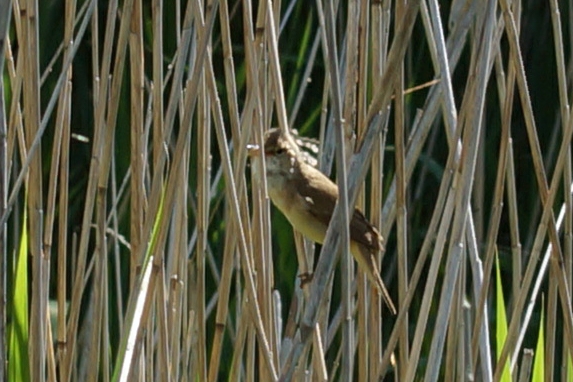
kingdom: Animalia
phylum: Chordata
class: Aves
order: Passeriformes
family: Acrocephalidae
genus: Acrocephalus
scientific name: Acrocephalus scirpaceus
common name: Rørsanger
